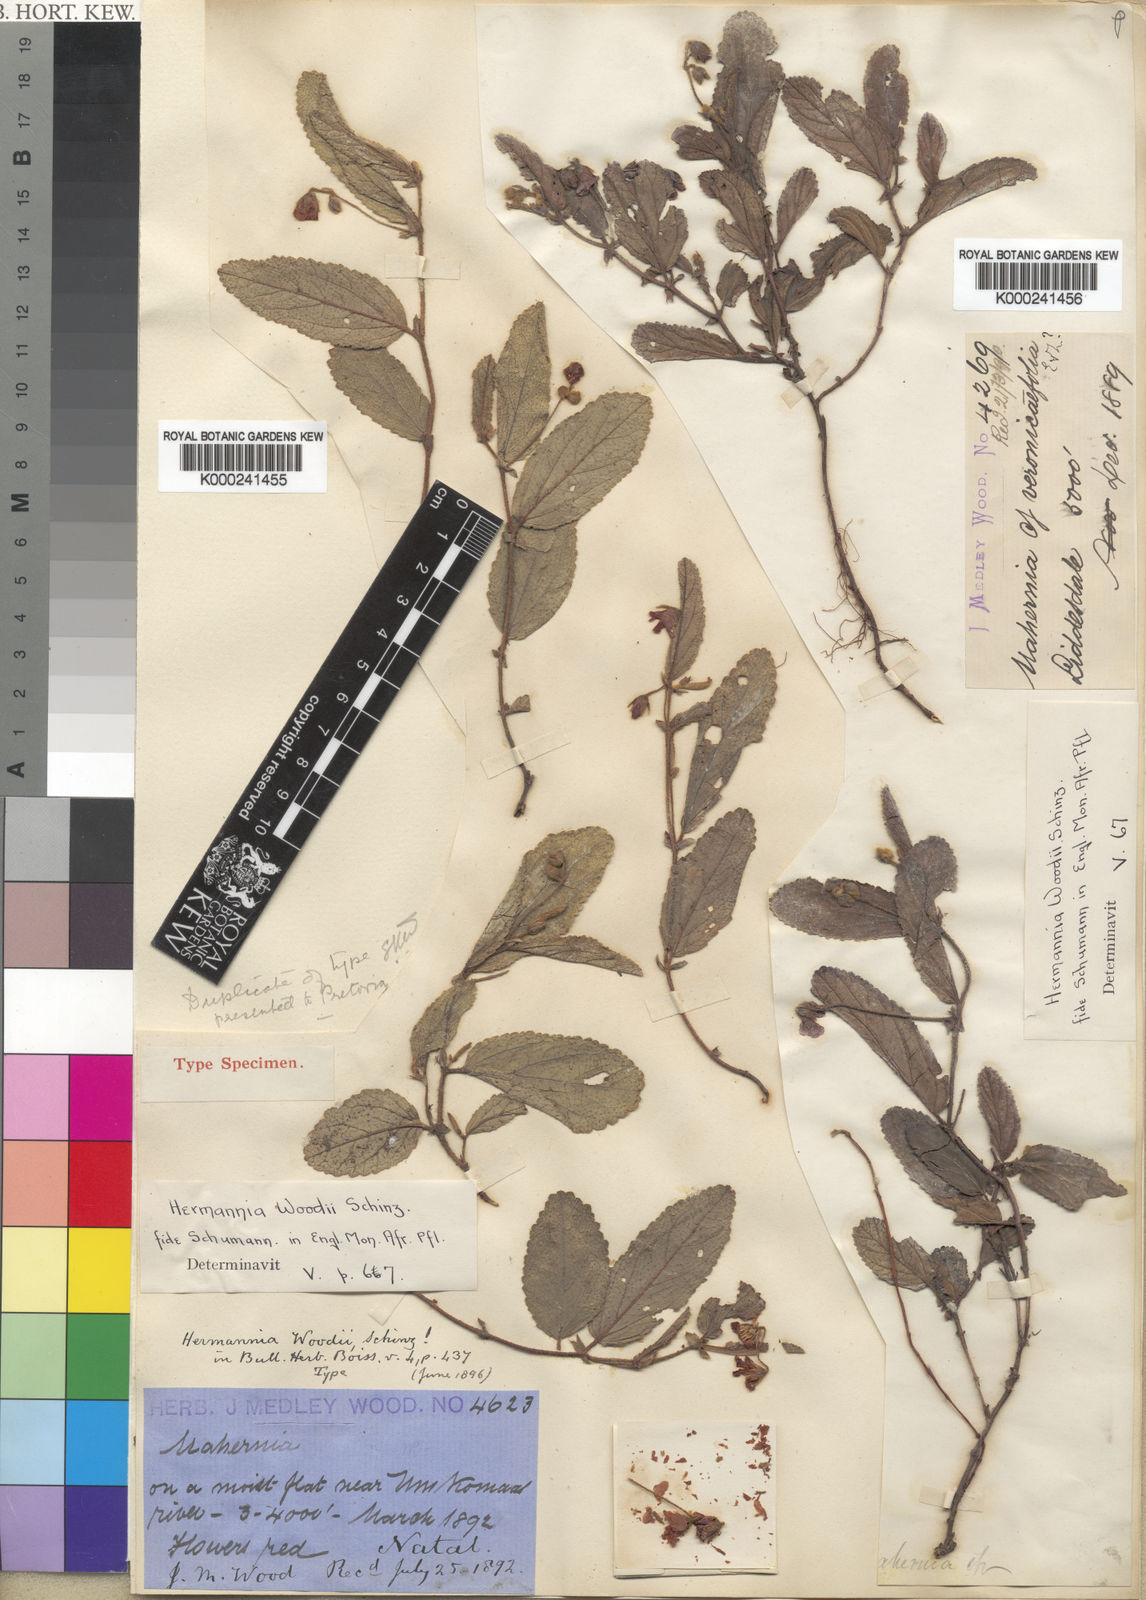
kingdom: Plantae
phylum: Tracheophyta
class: Magnoliopsida
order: Malvales
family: Malvaceae
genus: Hermannia
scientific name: Hermannia woodii
